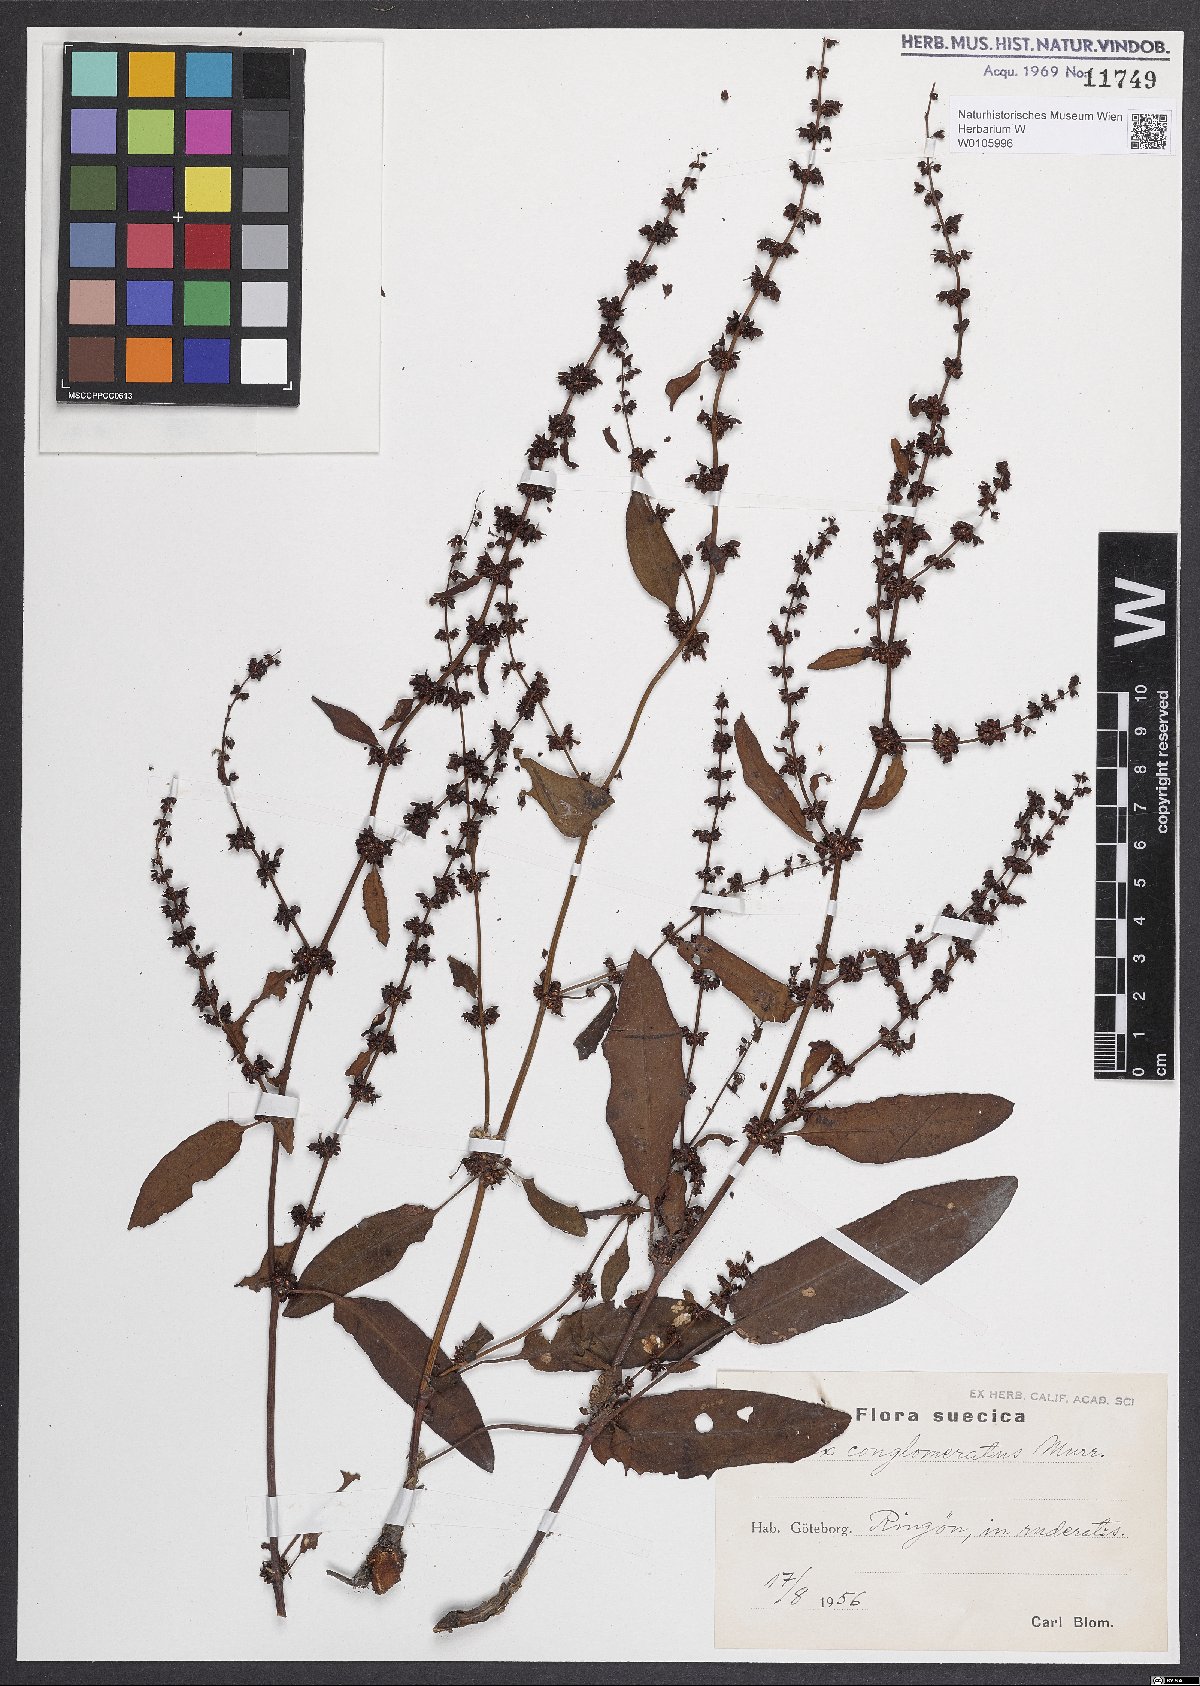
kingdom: Plantae
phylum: Tracheophyta
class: Magnoliopsida
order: Caryophyllales
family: Polygonaceae
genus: Rumex
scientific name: Rumex conglomeratus
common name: Clustered dock
